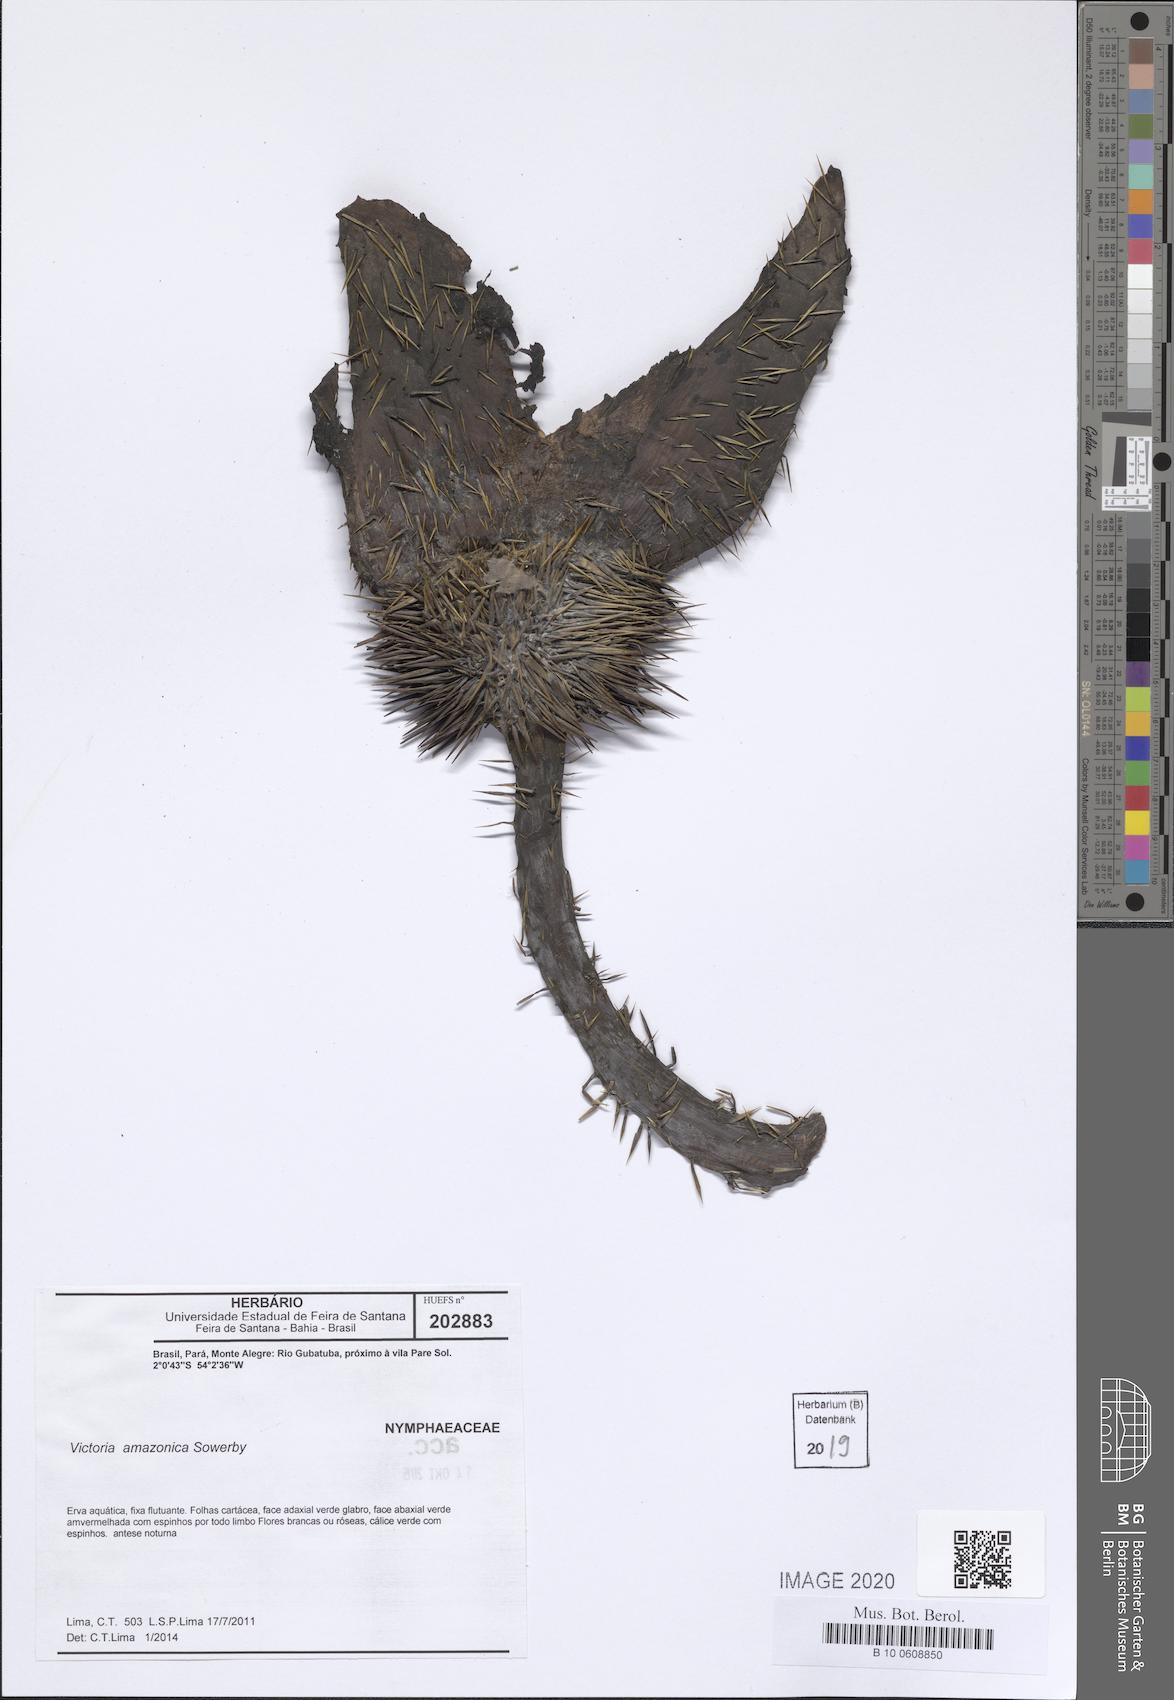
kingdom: Plantae
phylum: Tracheophyta
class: Magnoliopsida
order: Nymphaeales
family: Nymphaeaceae
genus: Victoria
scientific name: Victoria amazonica
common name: Amazon water-lily
